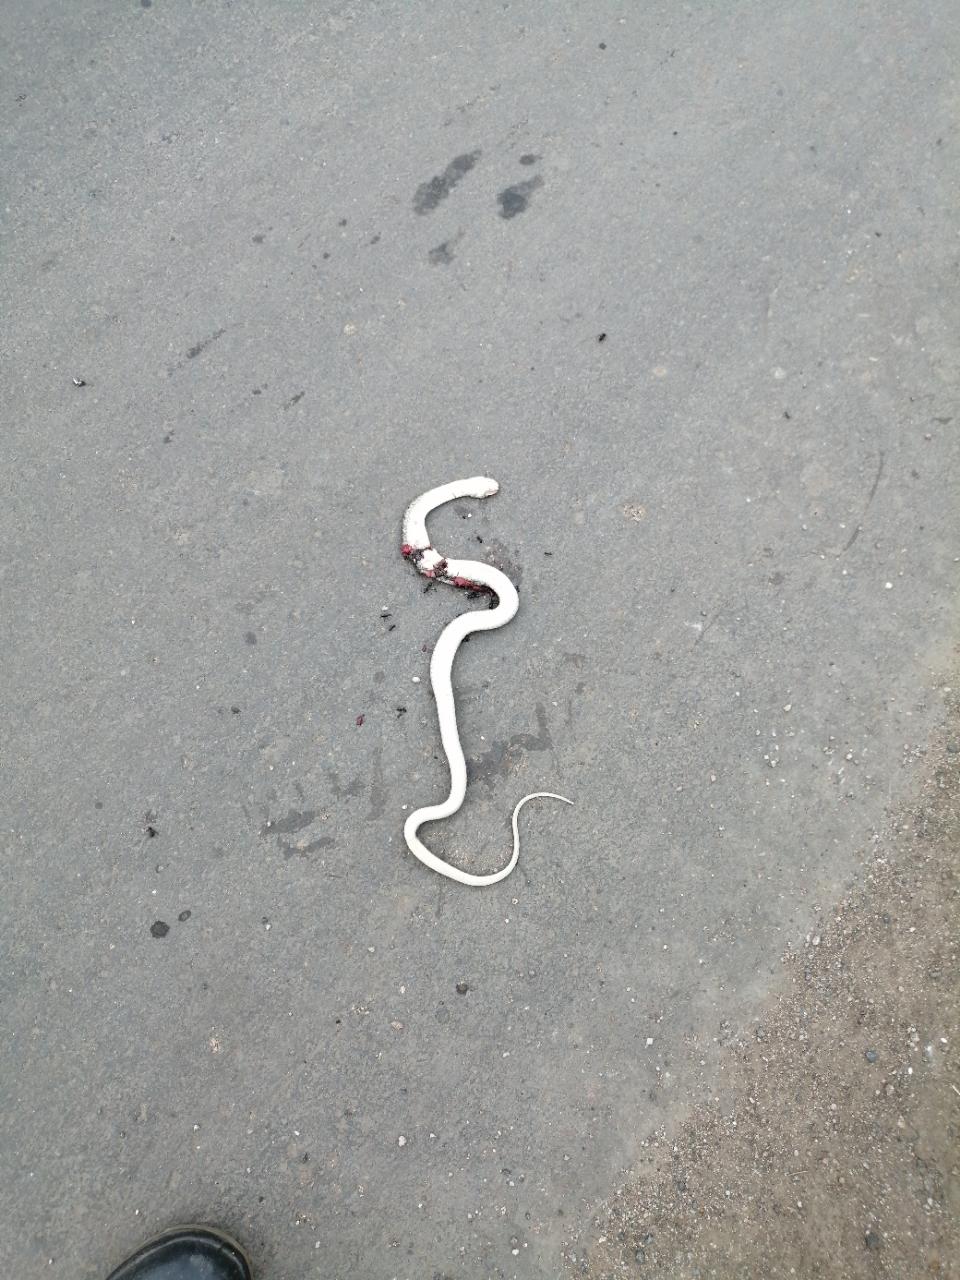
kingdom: Animalia
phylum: Chordata
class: Squamata
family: Colubridae
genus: Fowlea
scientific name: Fowlea piscator
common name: Asiatic water snake
